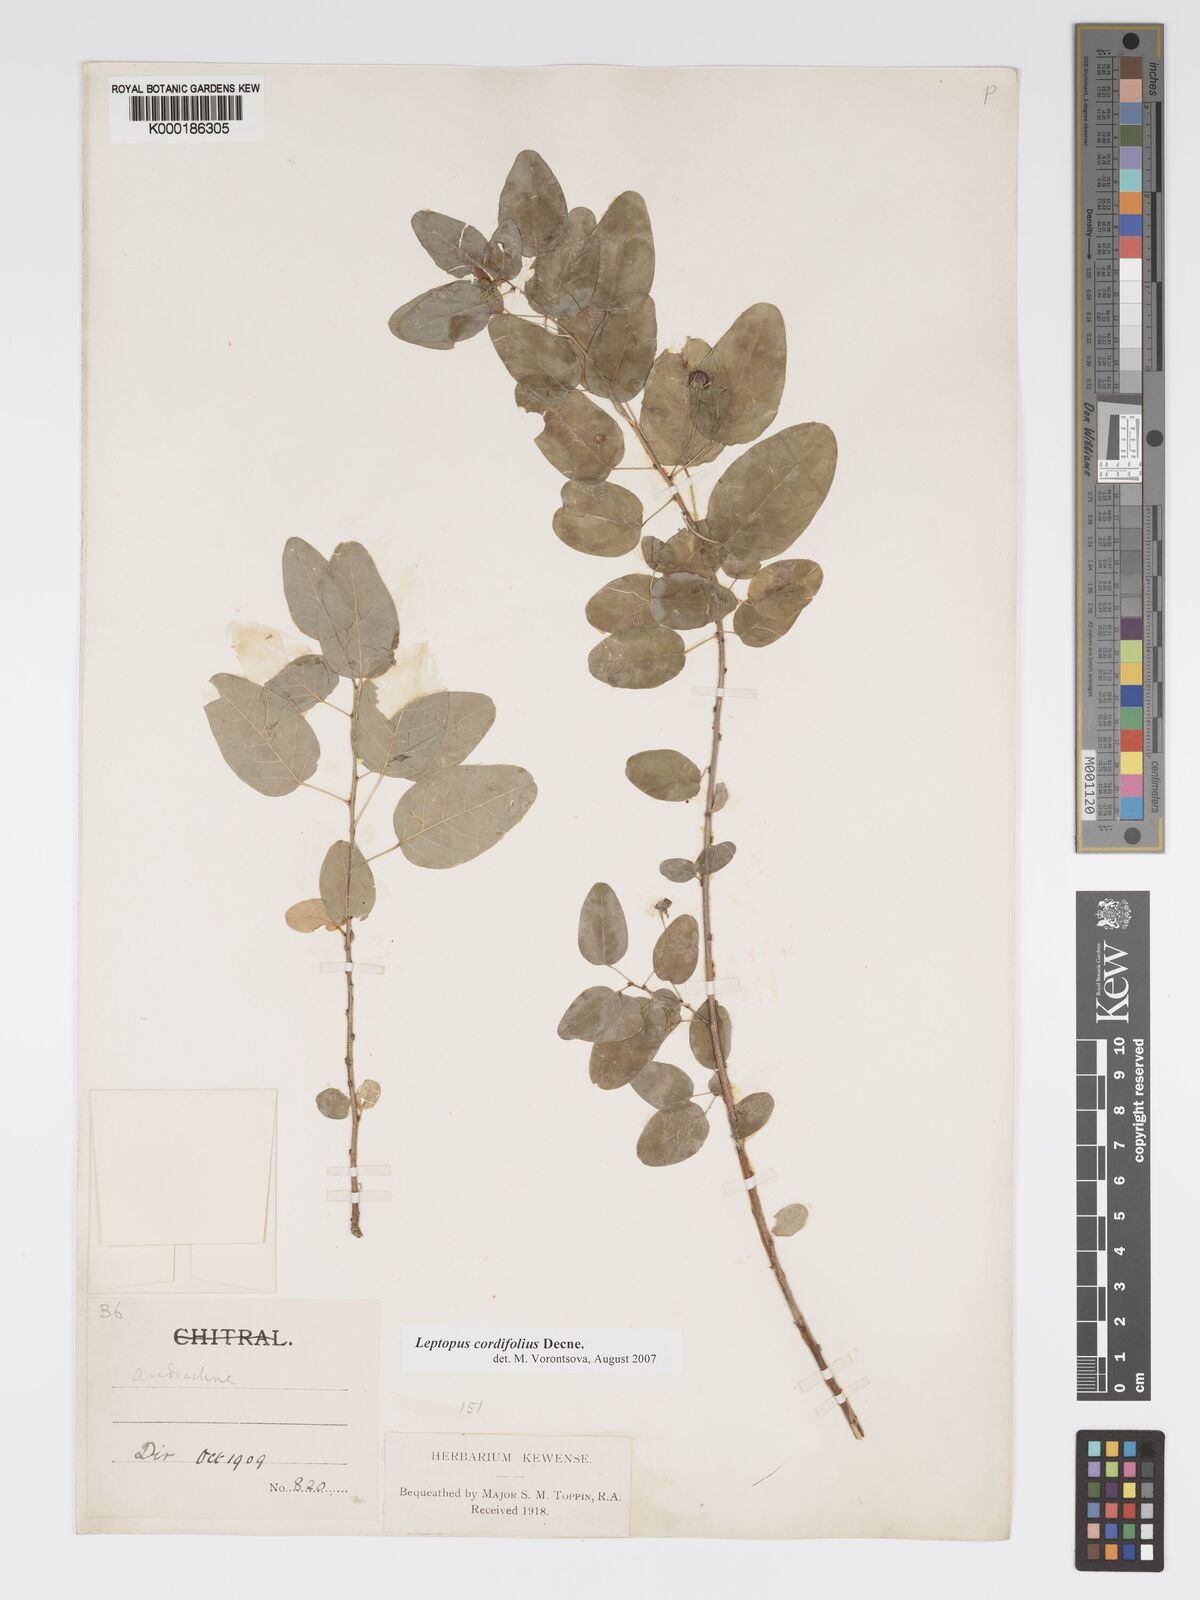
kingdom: Plantae
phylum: Tracheophyta
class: Magnoliopsida
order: Malpighiales
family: Phyllanthaceae
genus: Leptopus
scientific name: Leptopus cordifolius
